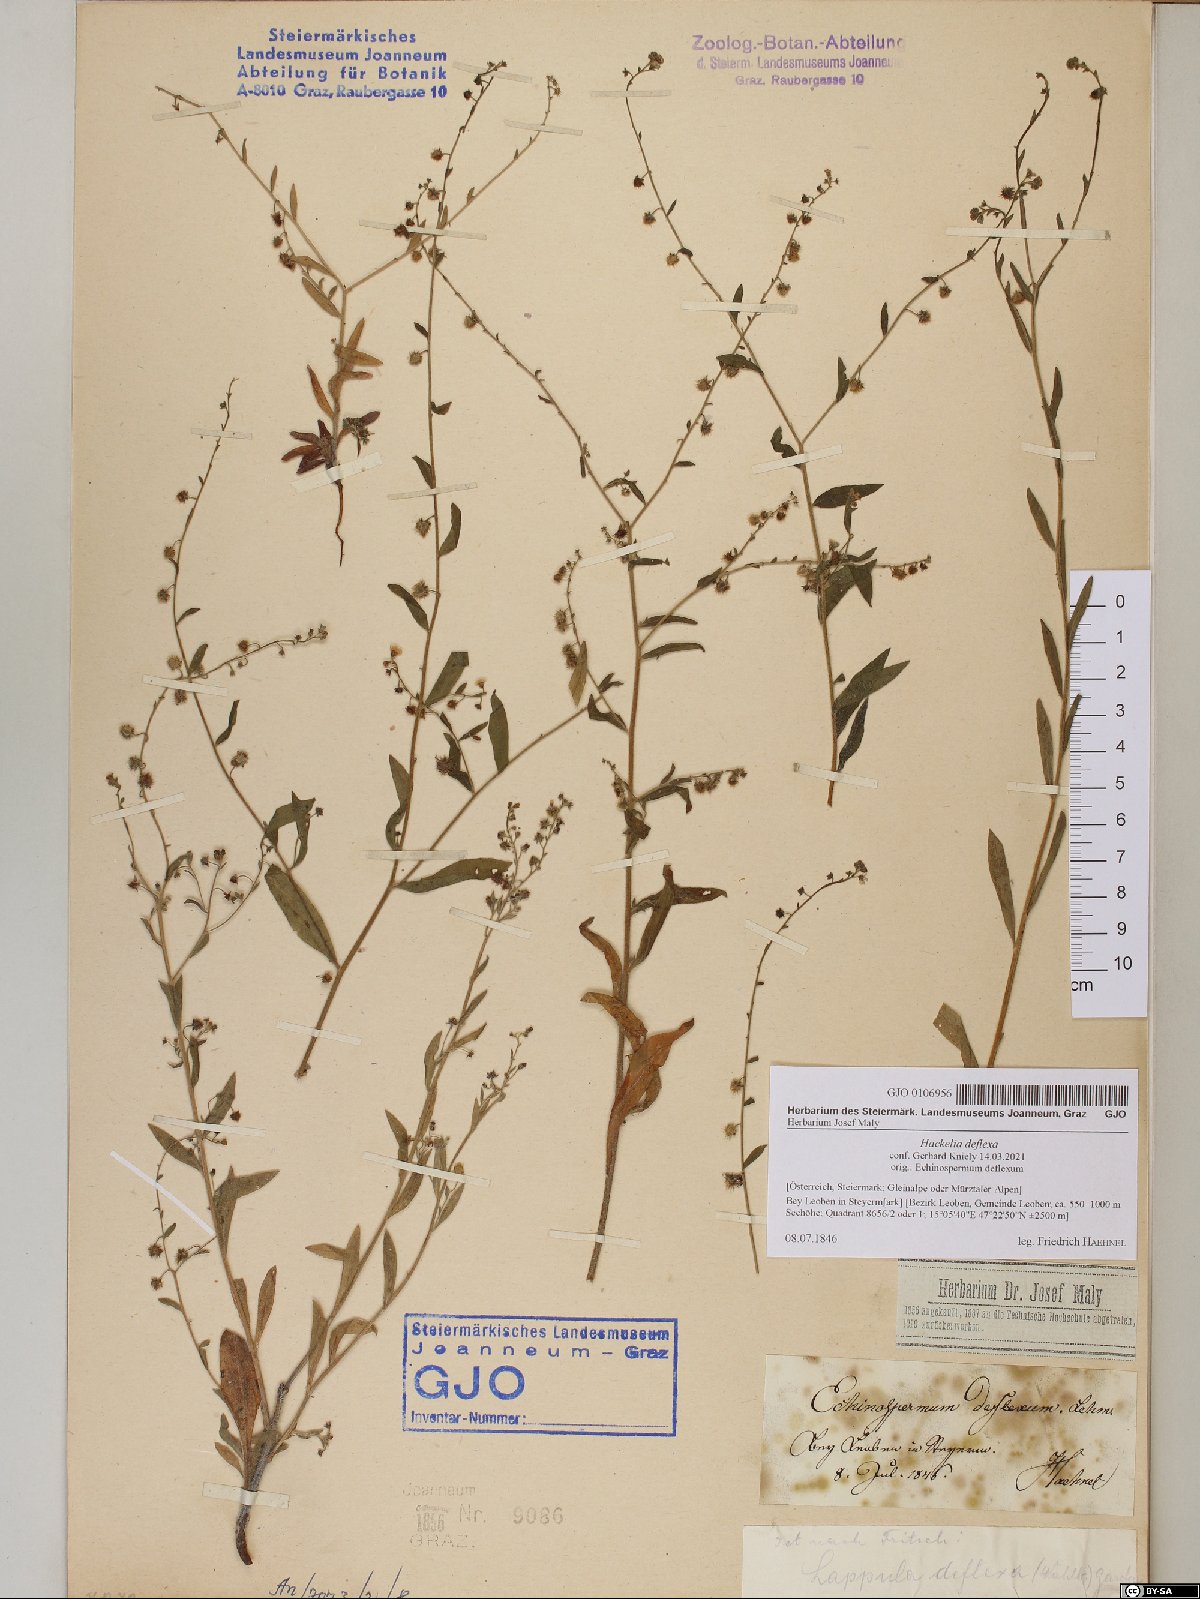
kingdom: Plantae
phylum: Tracheophyta
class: Magnoliopsida
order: Boraginales
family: Boraginaceae
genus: Hackelia
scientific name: Hackelia deflexa
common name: Nodding stickseed
